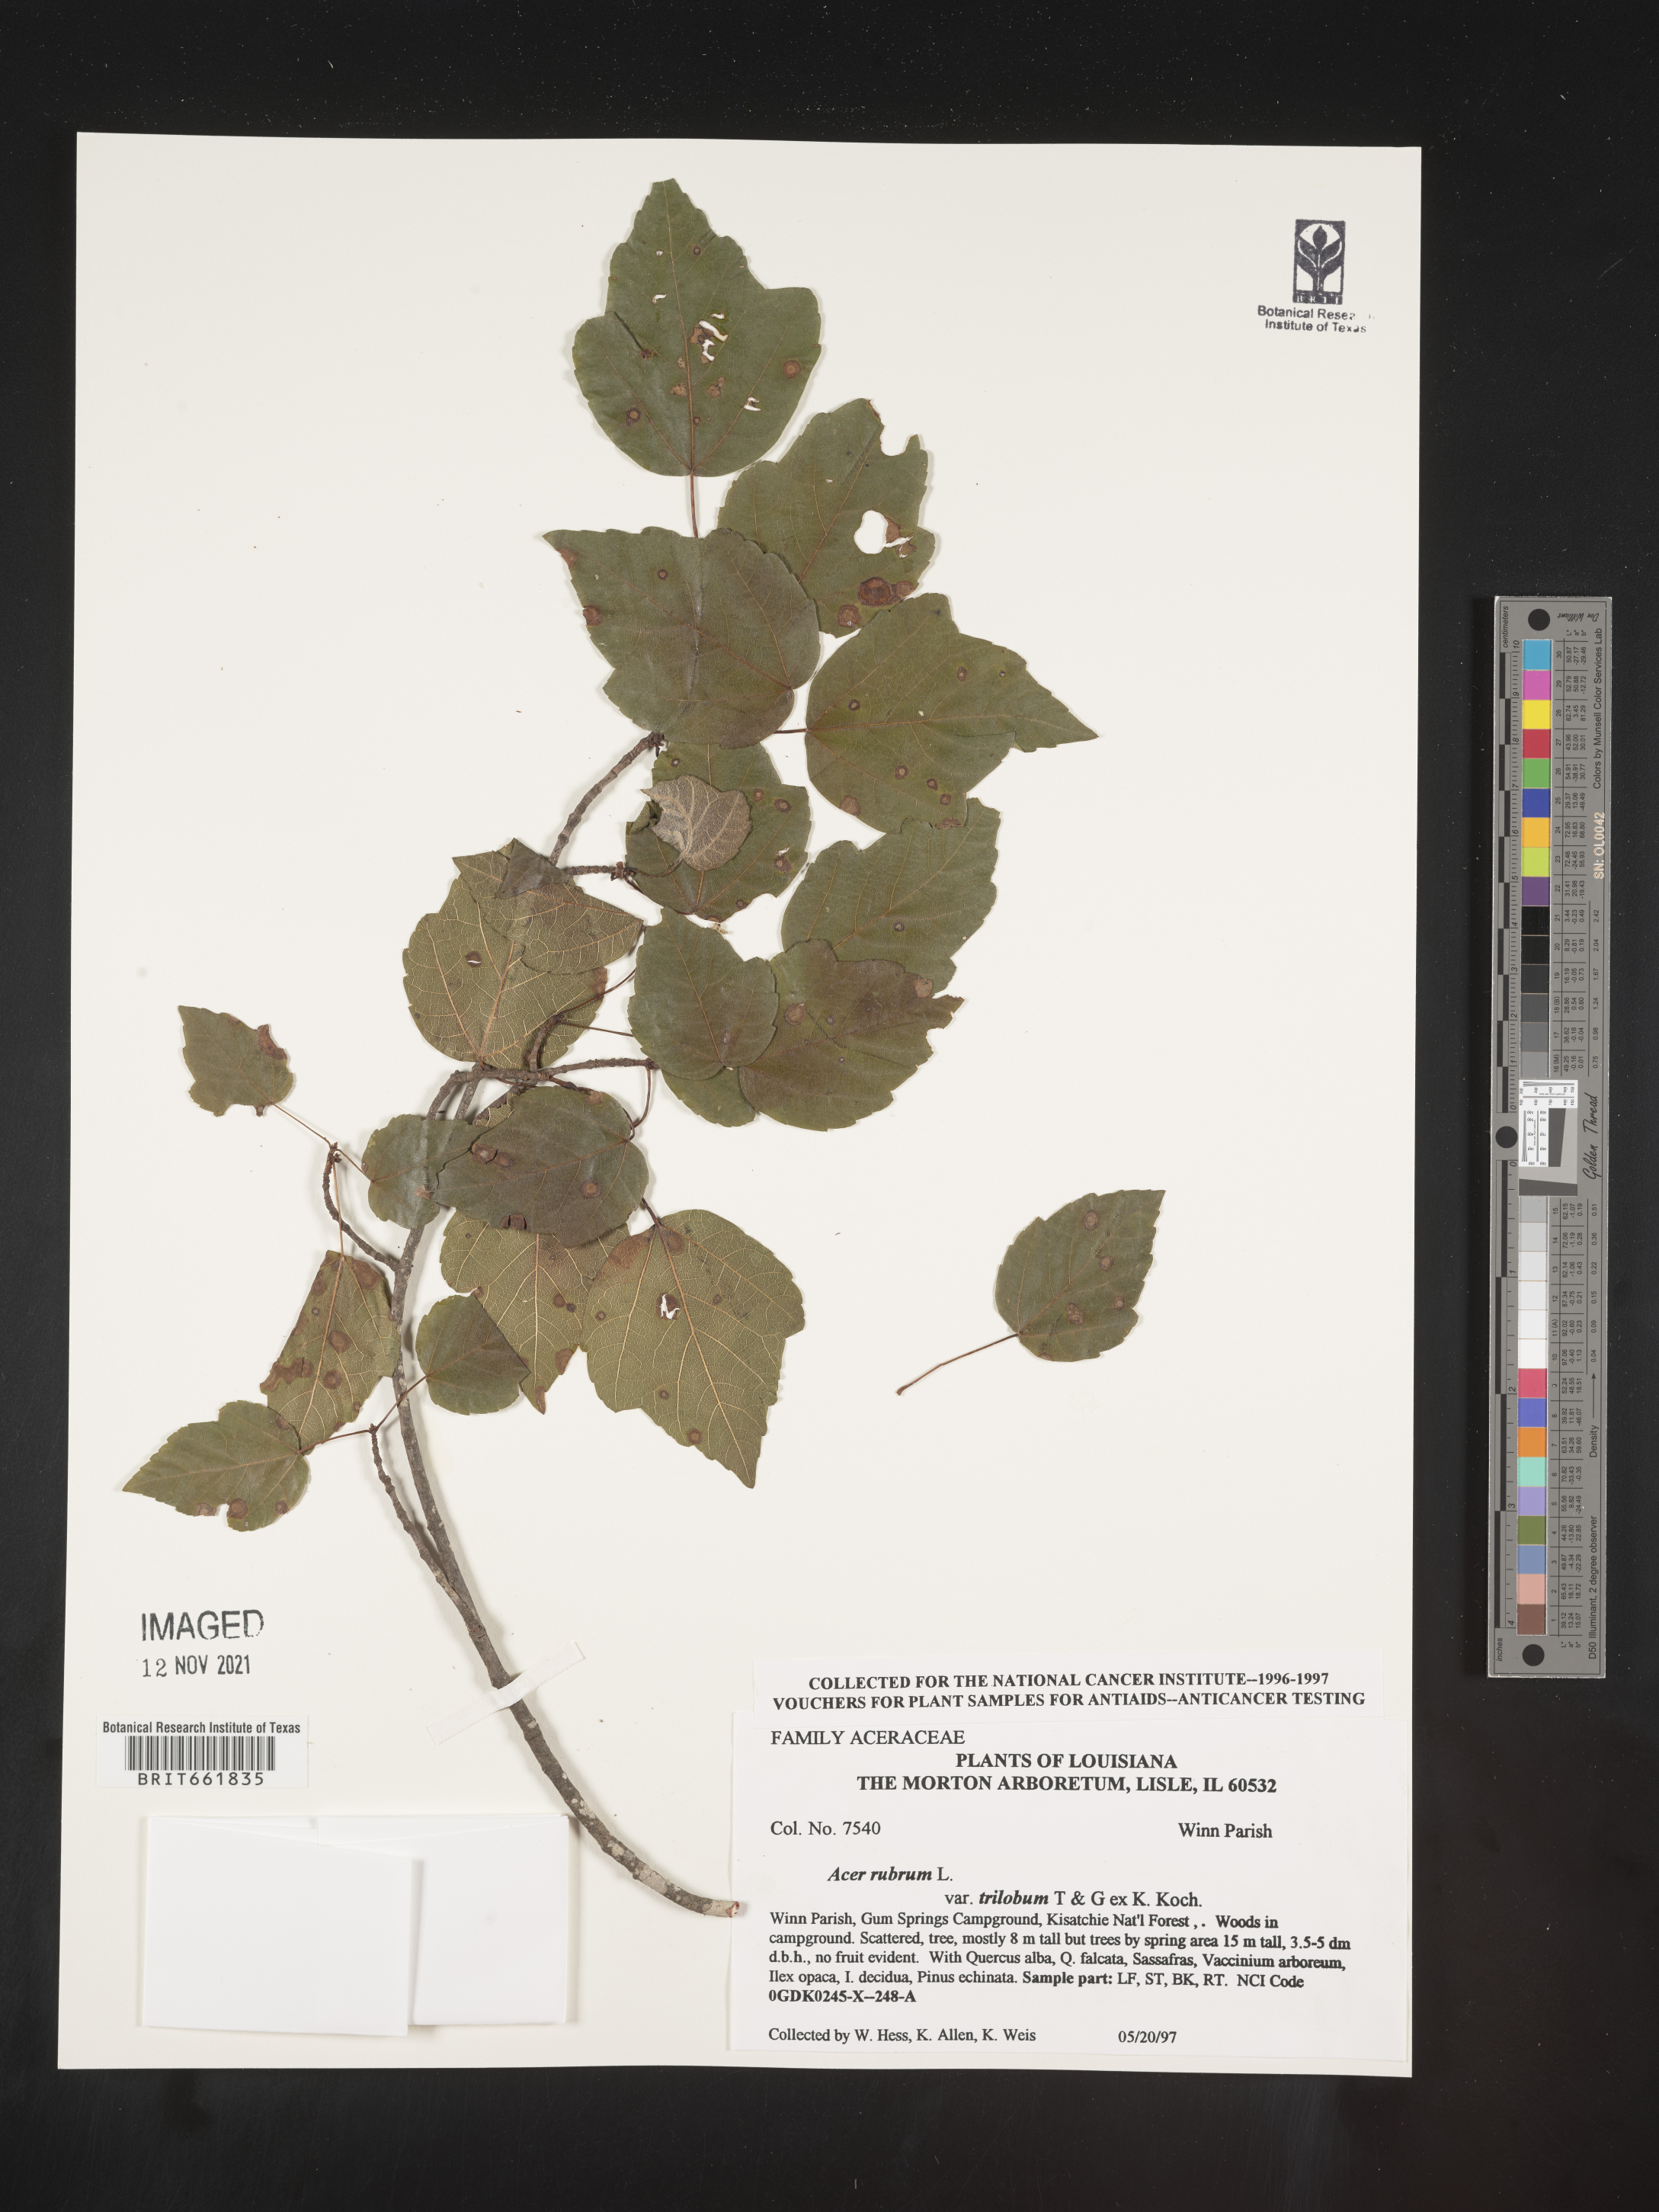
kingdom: Plantae
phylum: Tracheophyta
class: Magnoliopsida
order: Sapindales
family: Sapindaceae
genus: Acer
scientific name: Acer rubrum
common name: Red maple
